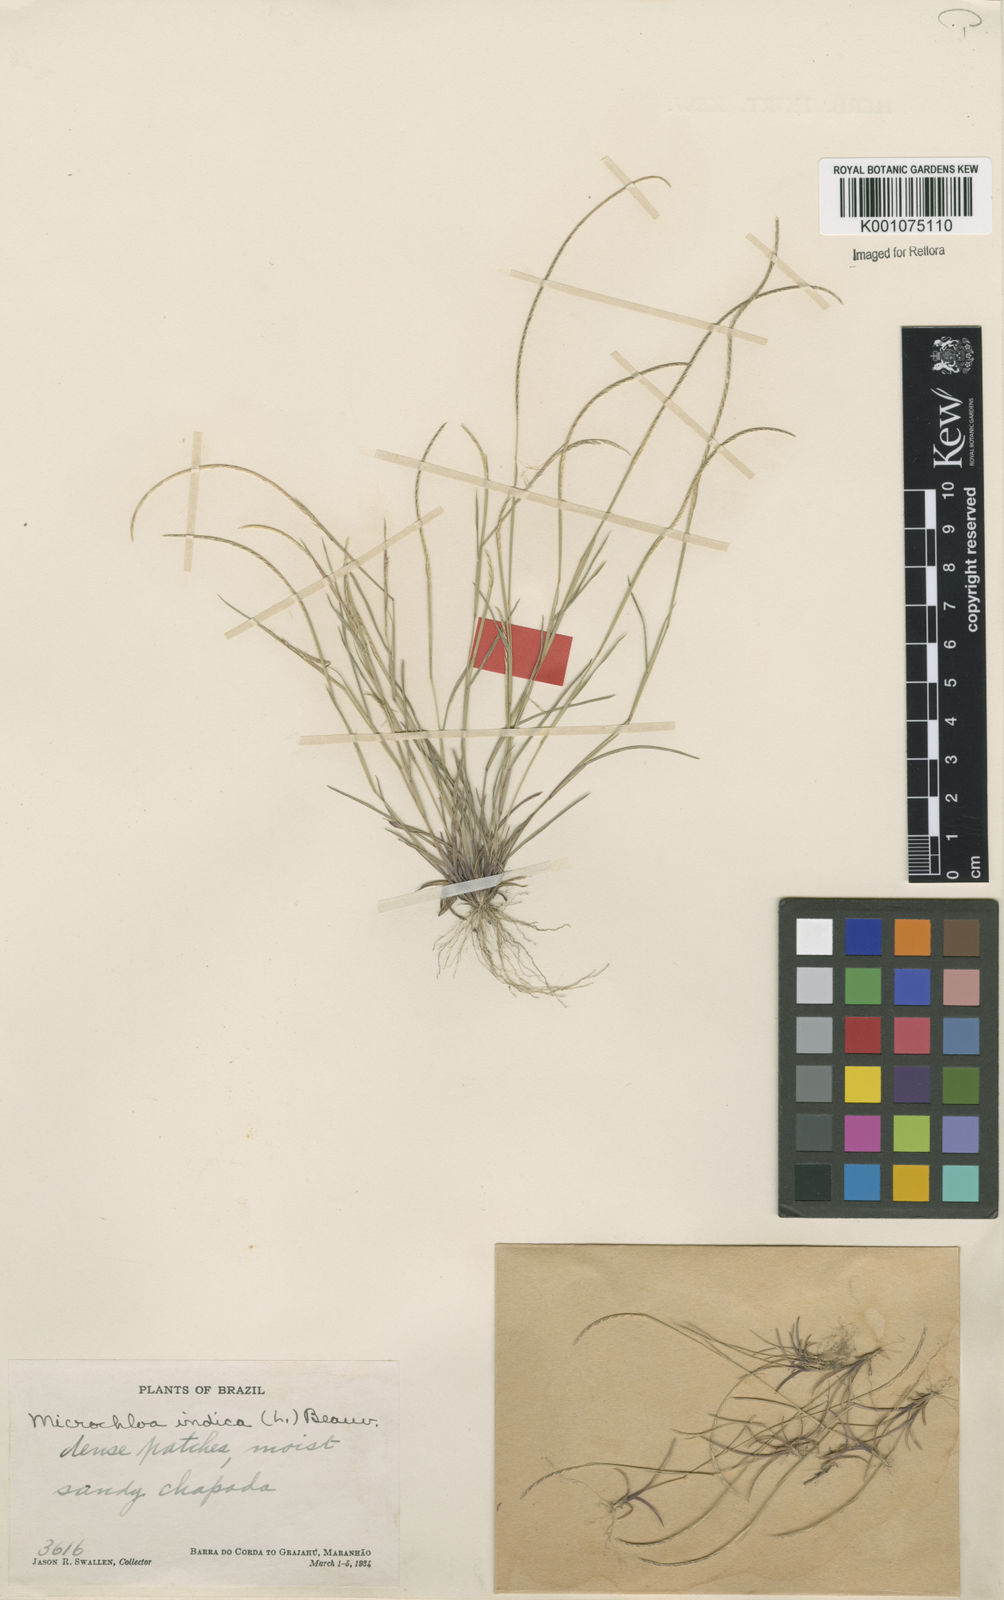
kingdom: Plantae
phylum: Tracheophyta
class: Liliopsida
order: Poales
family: Poaceae
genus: Microchloa
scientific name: Microchloa indica
